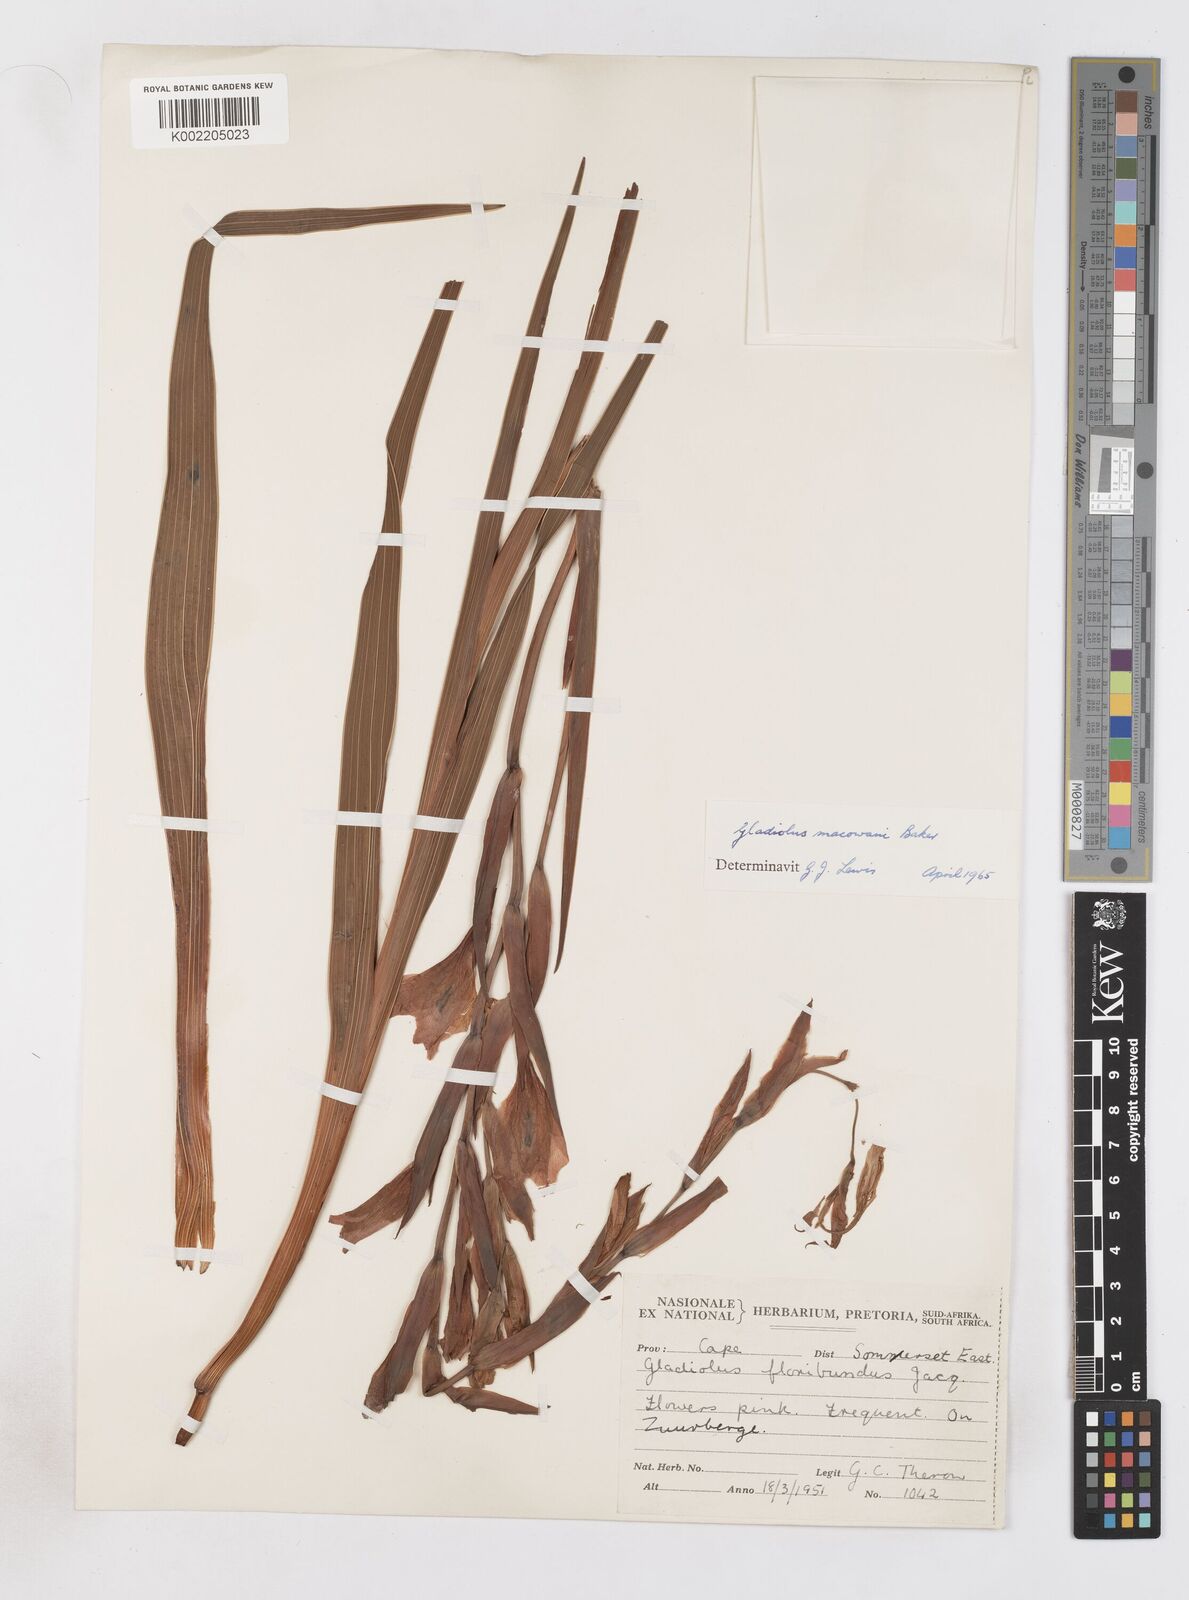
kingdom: Plantae
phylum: Tracheophyta
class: Liliopsida
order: Asparagales
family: Iridaceae
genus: Gladiolus
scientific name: Gladiolus mortonius
